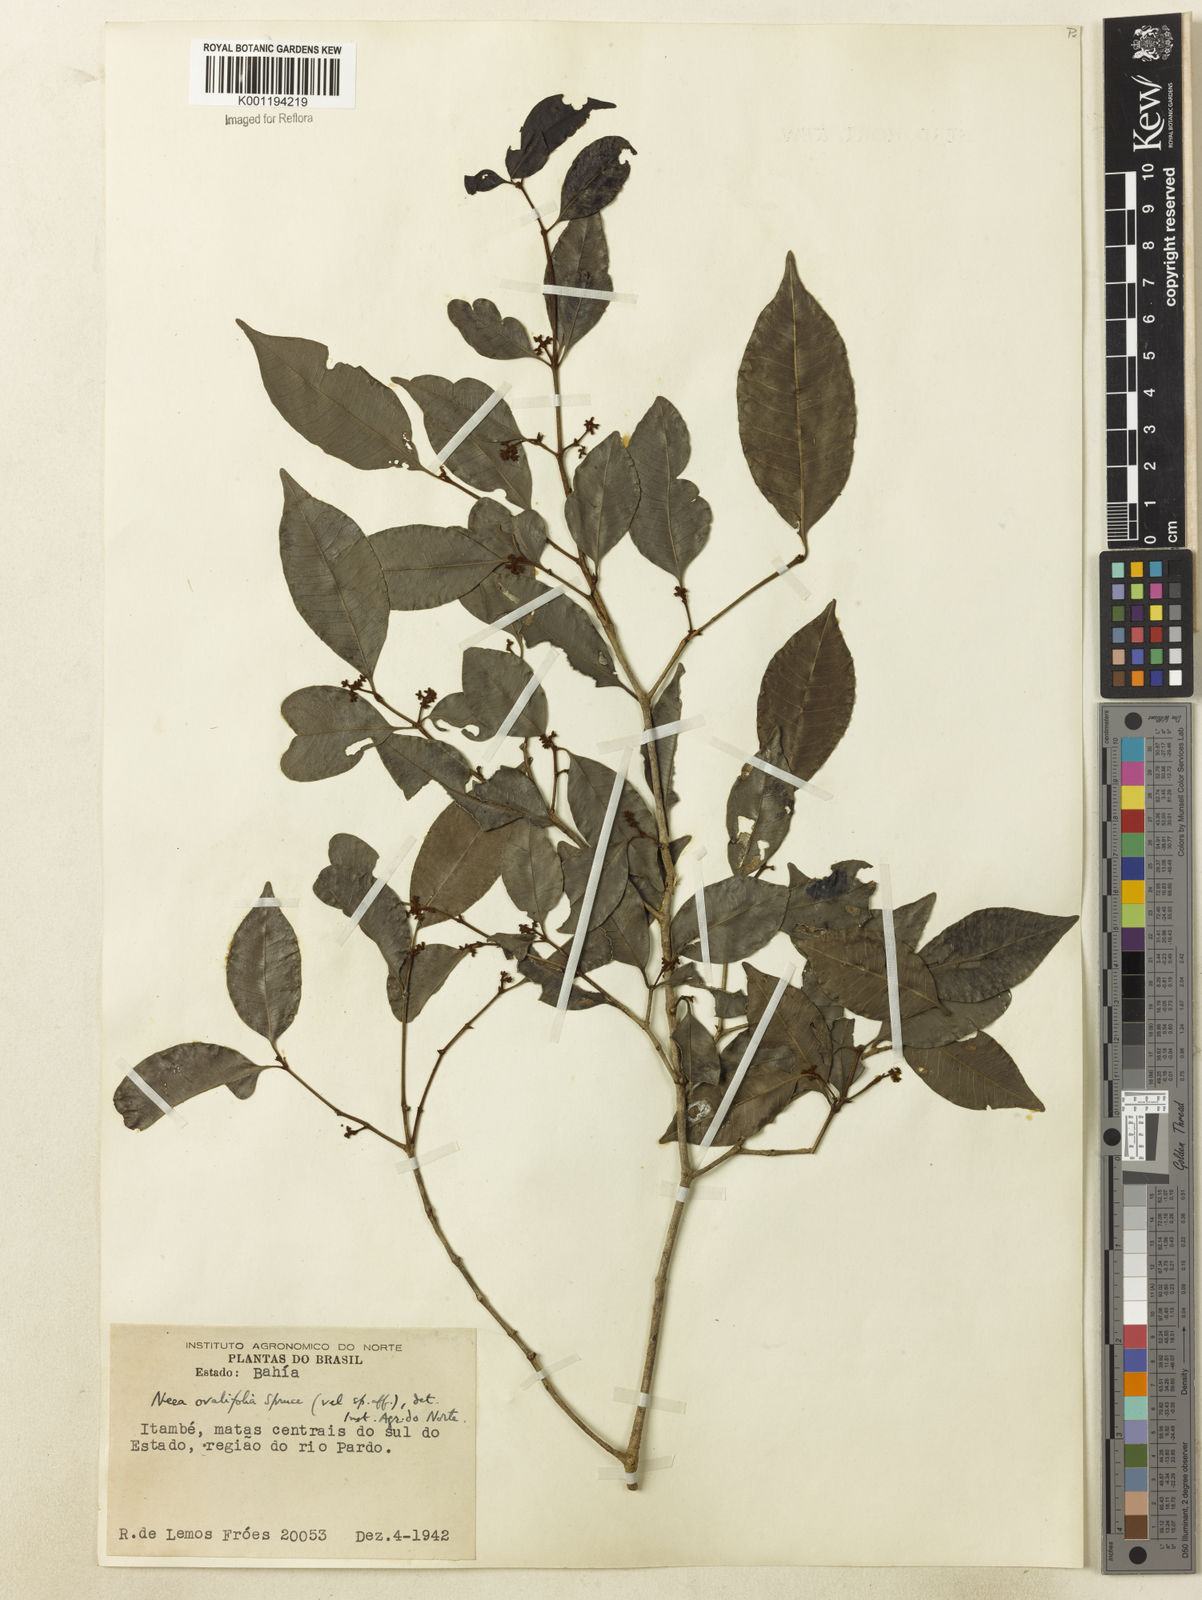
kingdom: Plantae
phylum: Tracheophyta
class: Magnoliopsida
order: Caryophyllales
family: Nyctaginaceae
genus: Neea
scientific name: Neea ovalifolia
